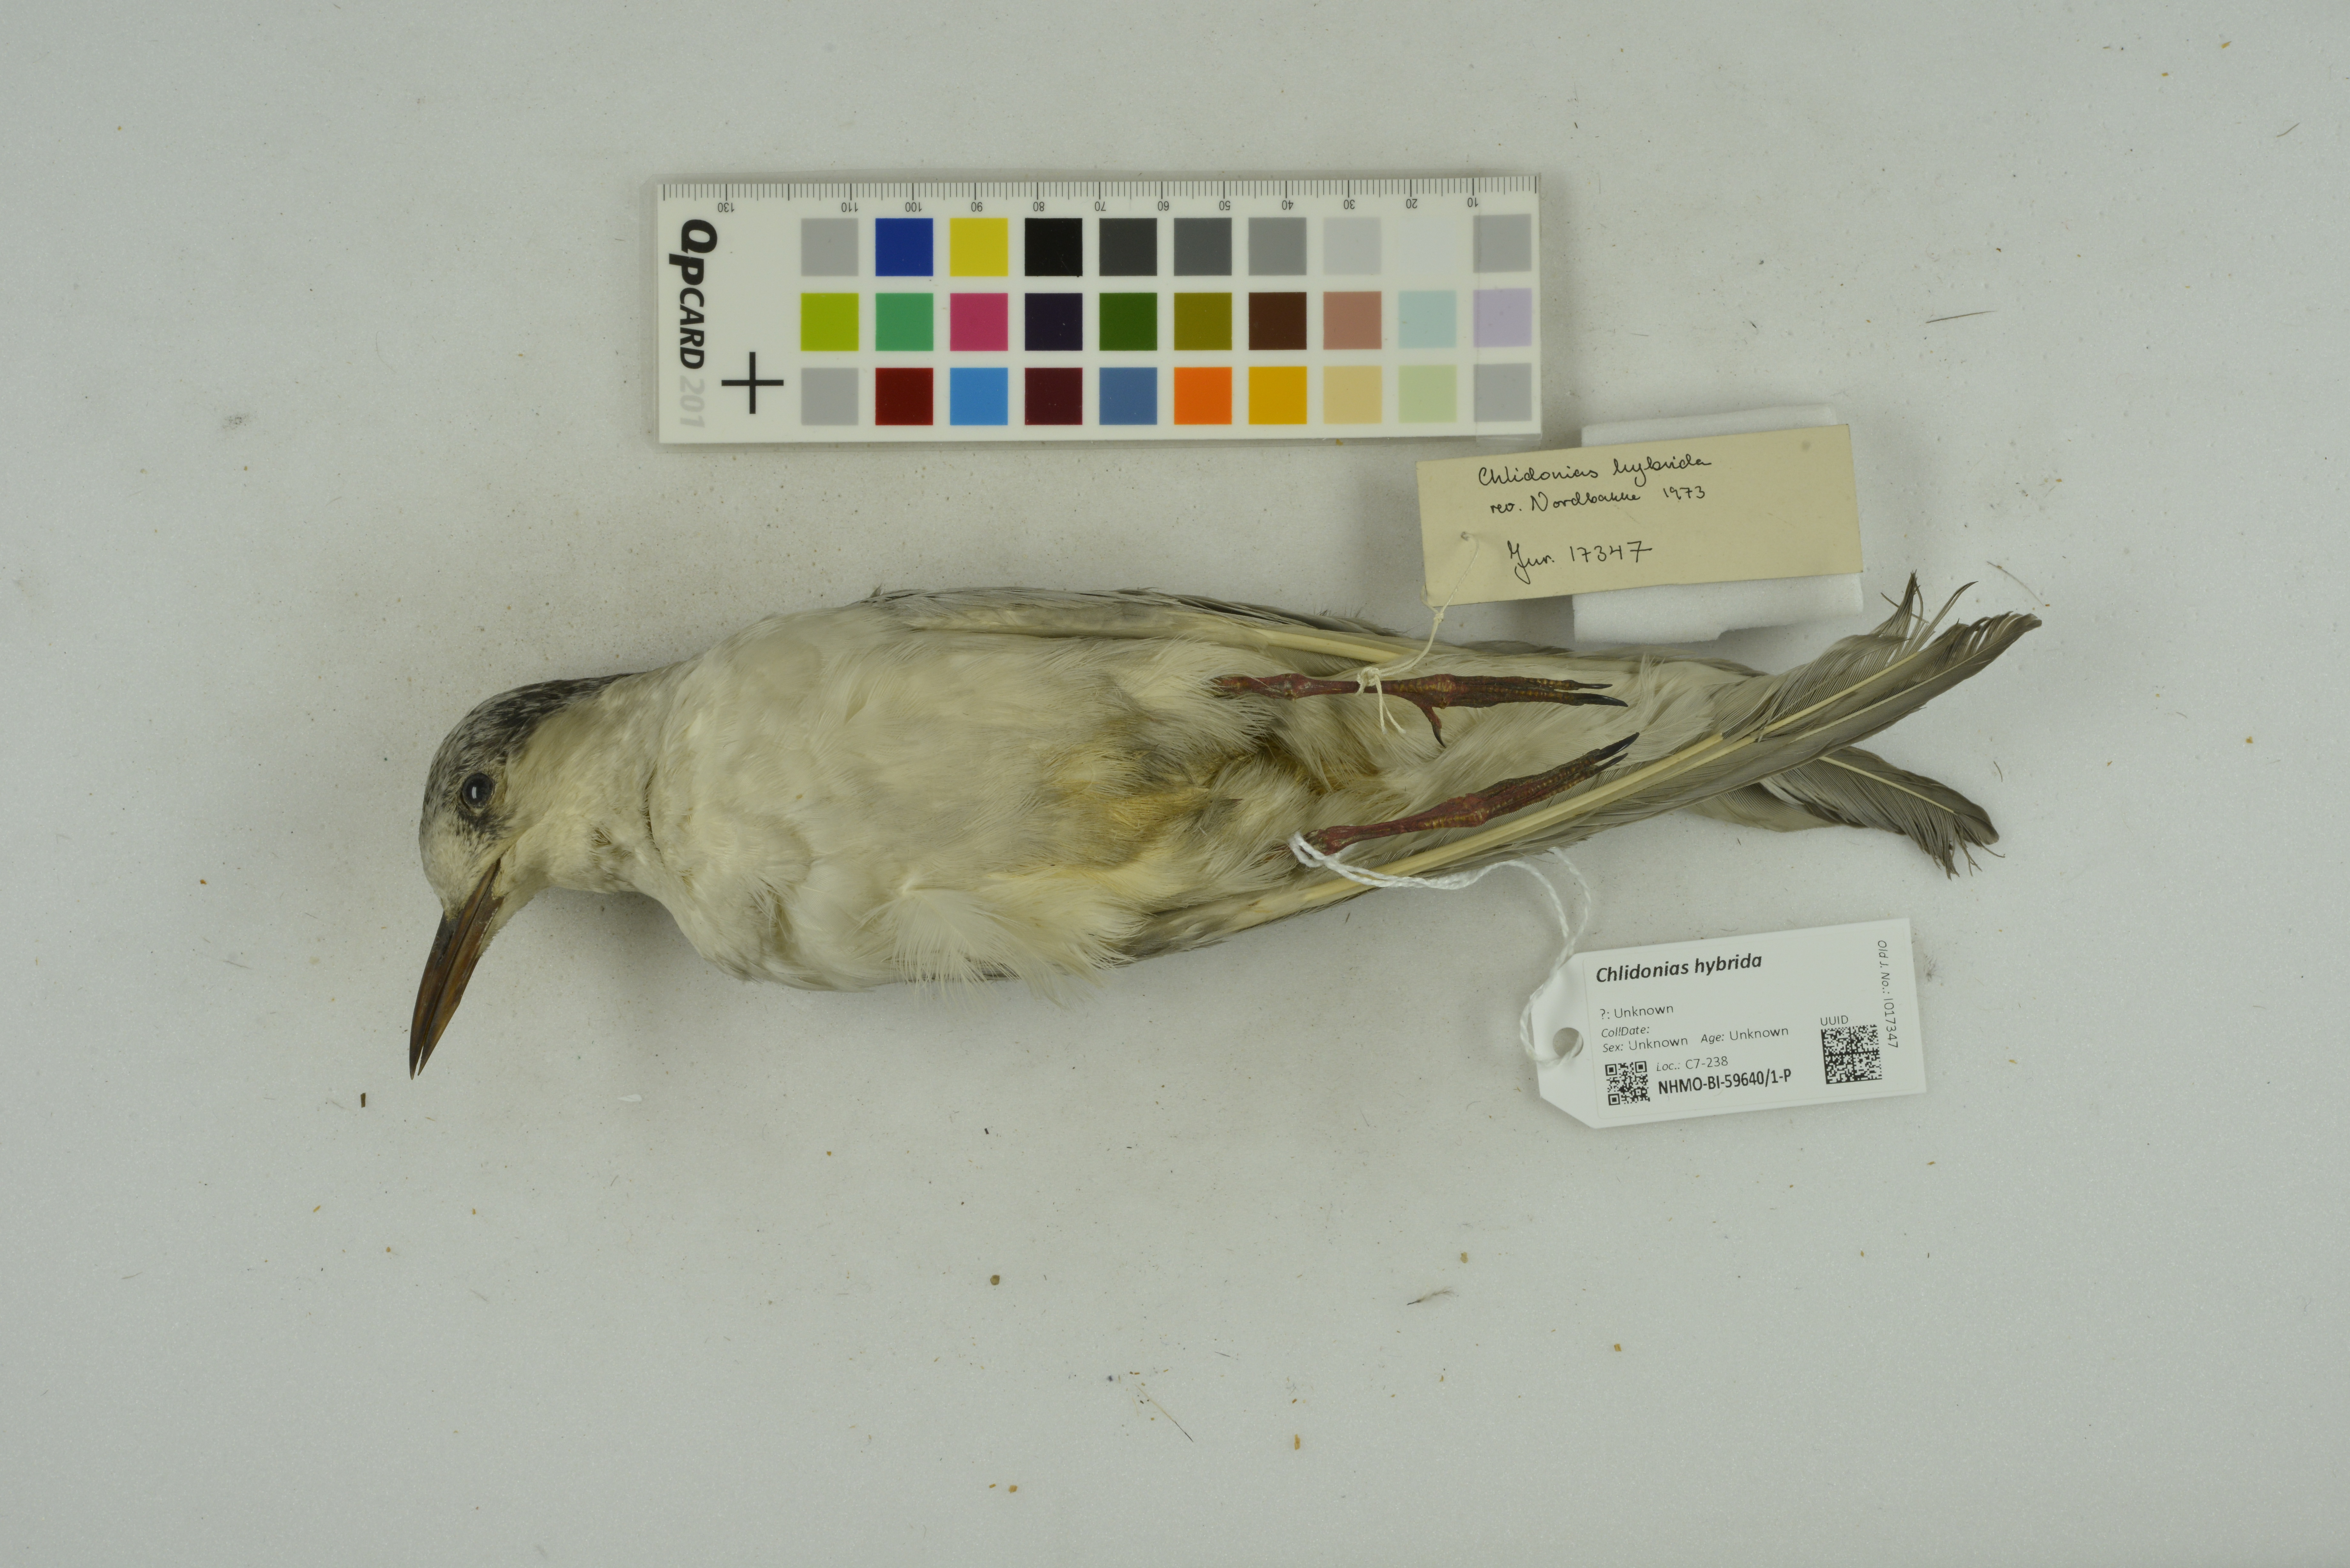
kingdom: Animalia
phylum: Chordata
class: Aves
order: Charadriiformes
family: Laridae
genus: Chlidonias
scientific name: Chlidonias hybrida
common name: Whiskered tern
